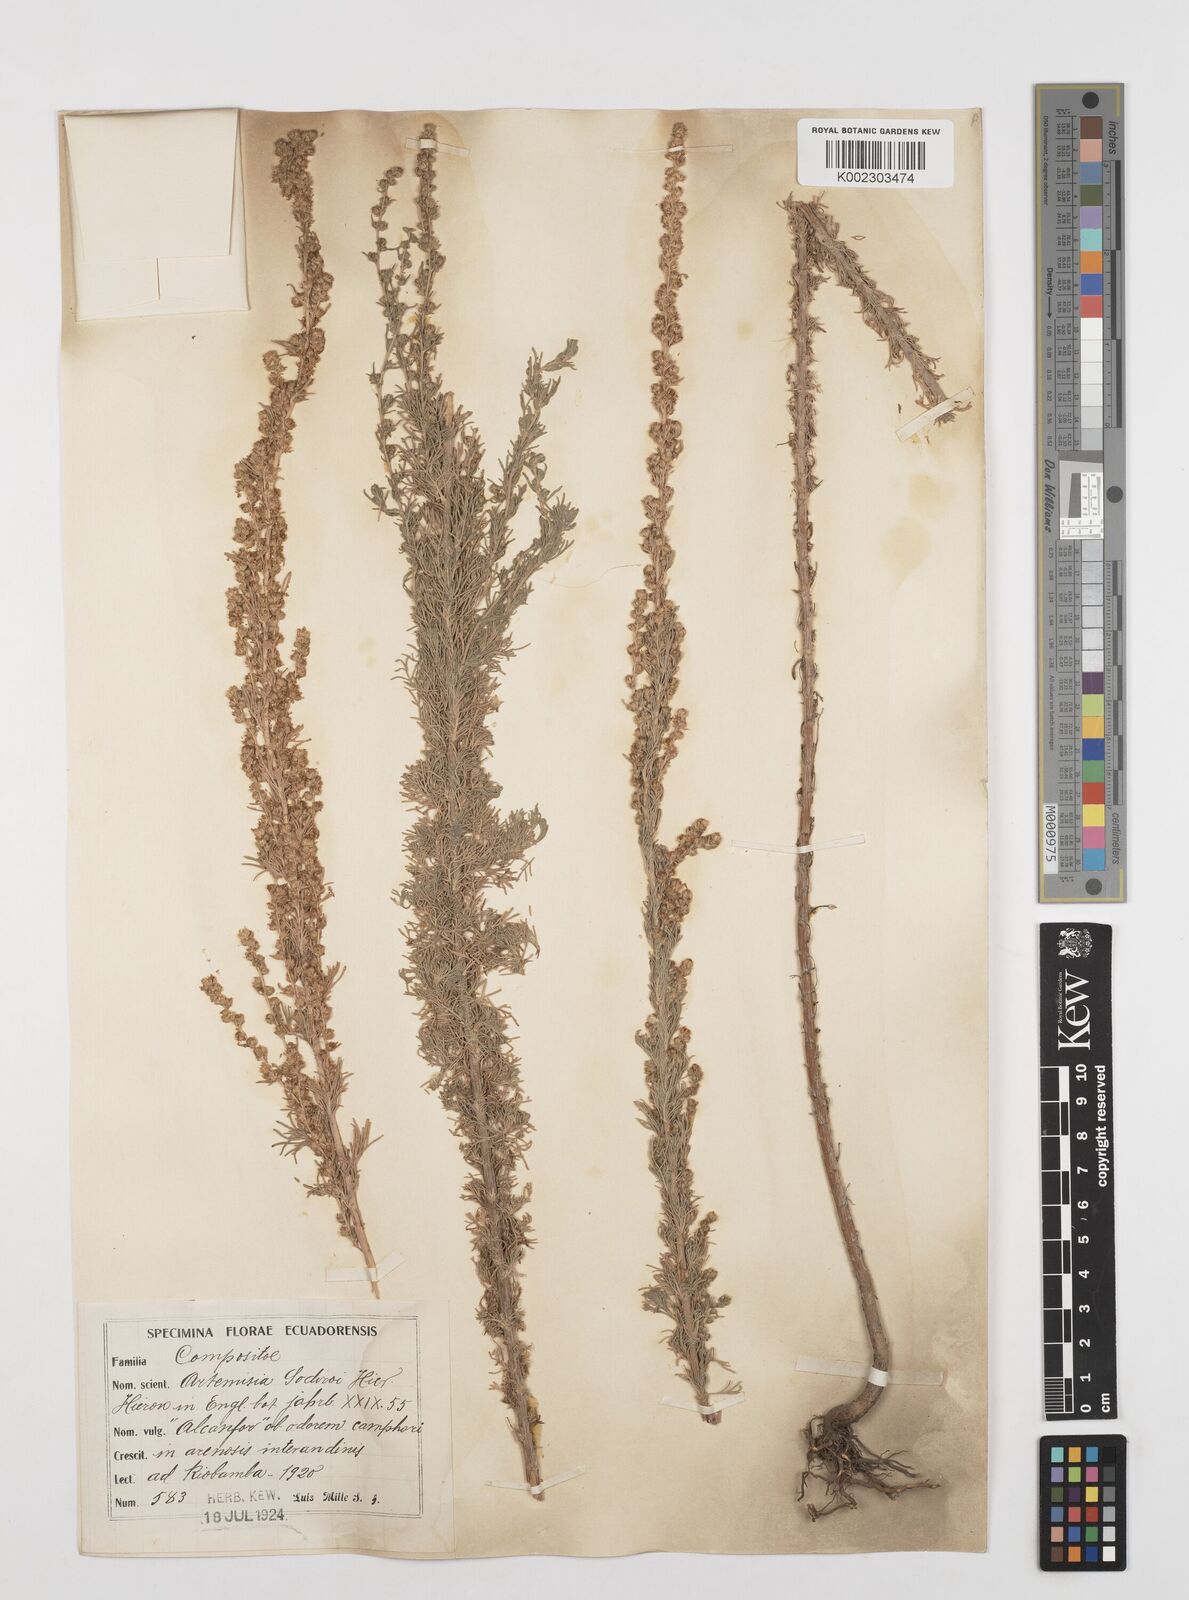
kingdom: Plantae
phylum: Tracheophyta
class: Magnoliopsida
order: Asterales
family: Asteraceae
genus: Artemisia
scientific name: Artemisia sodiroi
